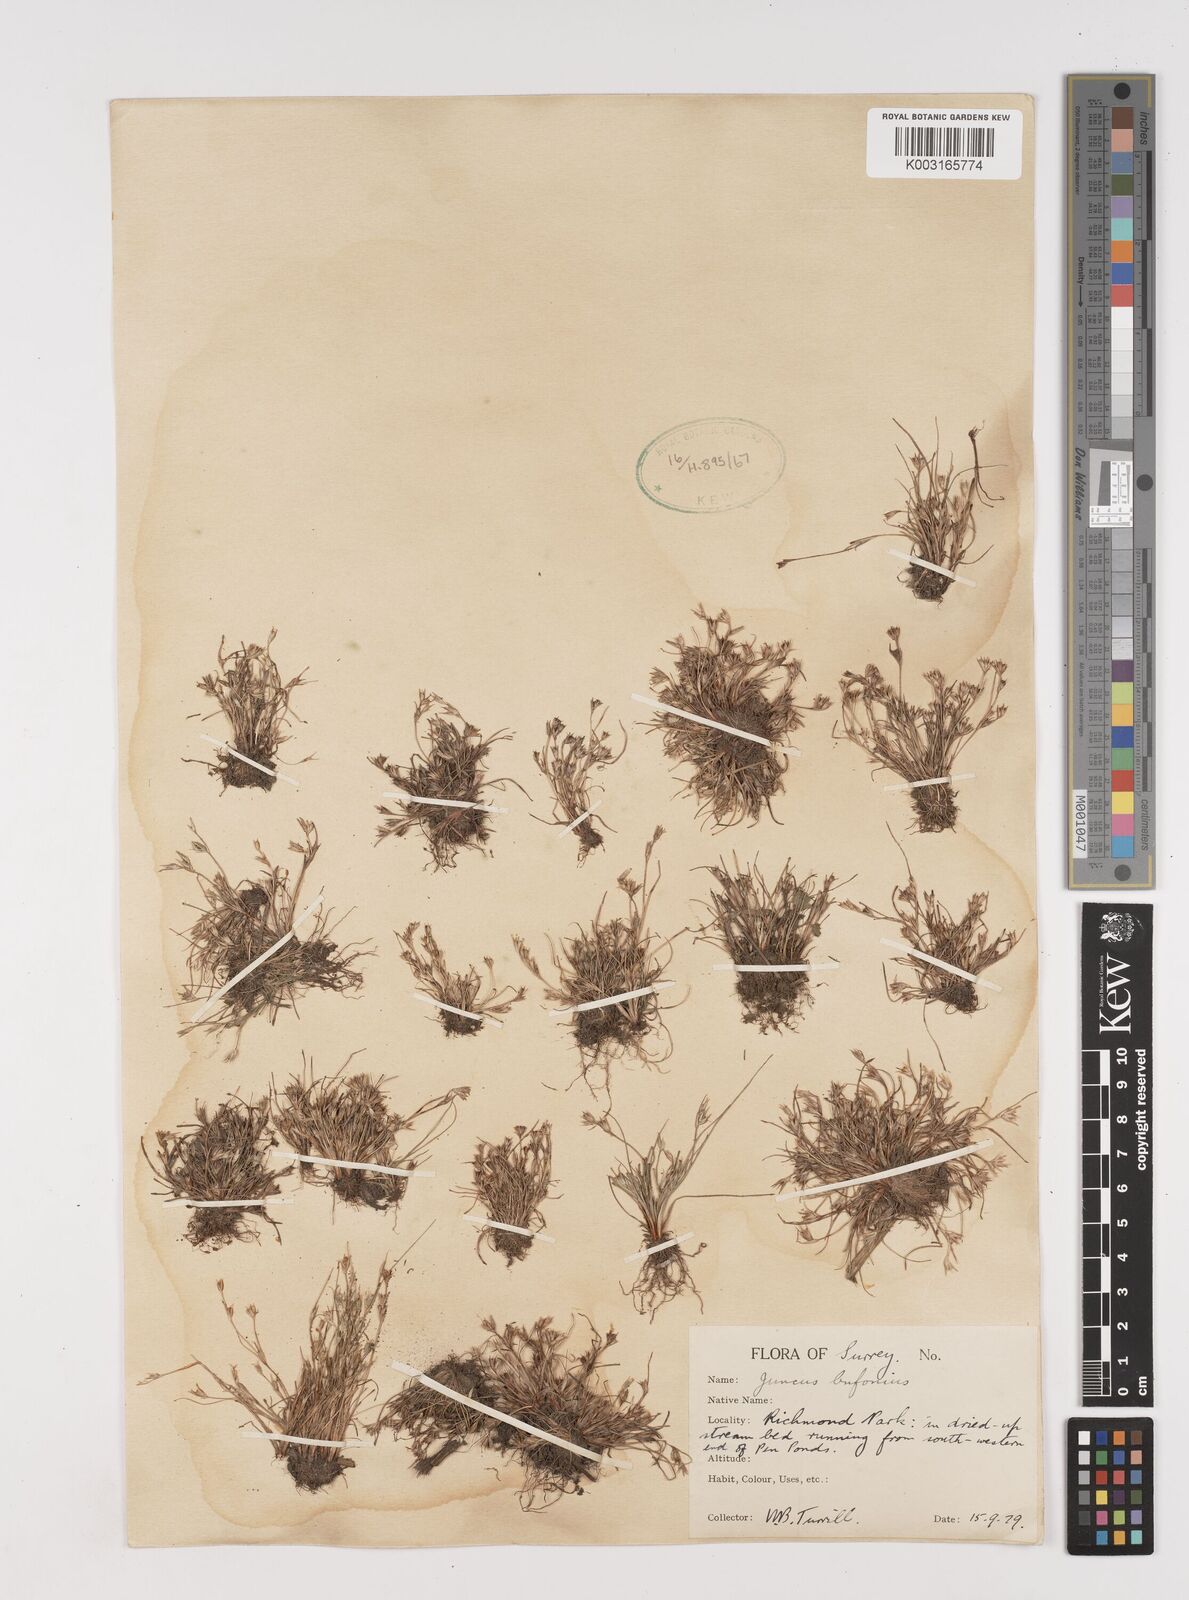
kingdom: Plantae
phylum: Tracheophyta
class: Liliopsida
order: Poales
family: Juncaceae
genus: Juncus
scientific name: Juncus bufonius
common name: Toad rush
